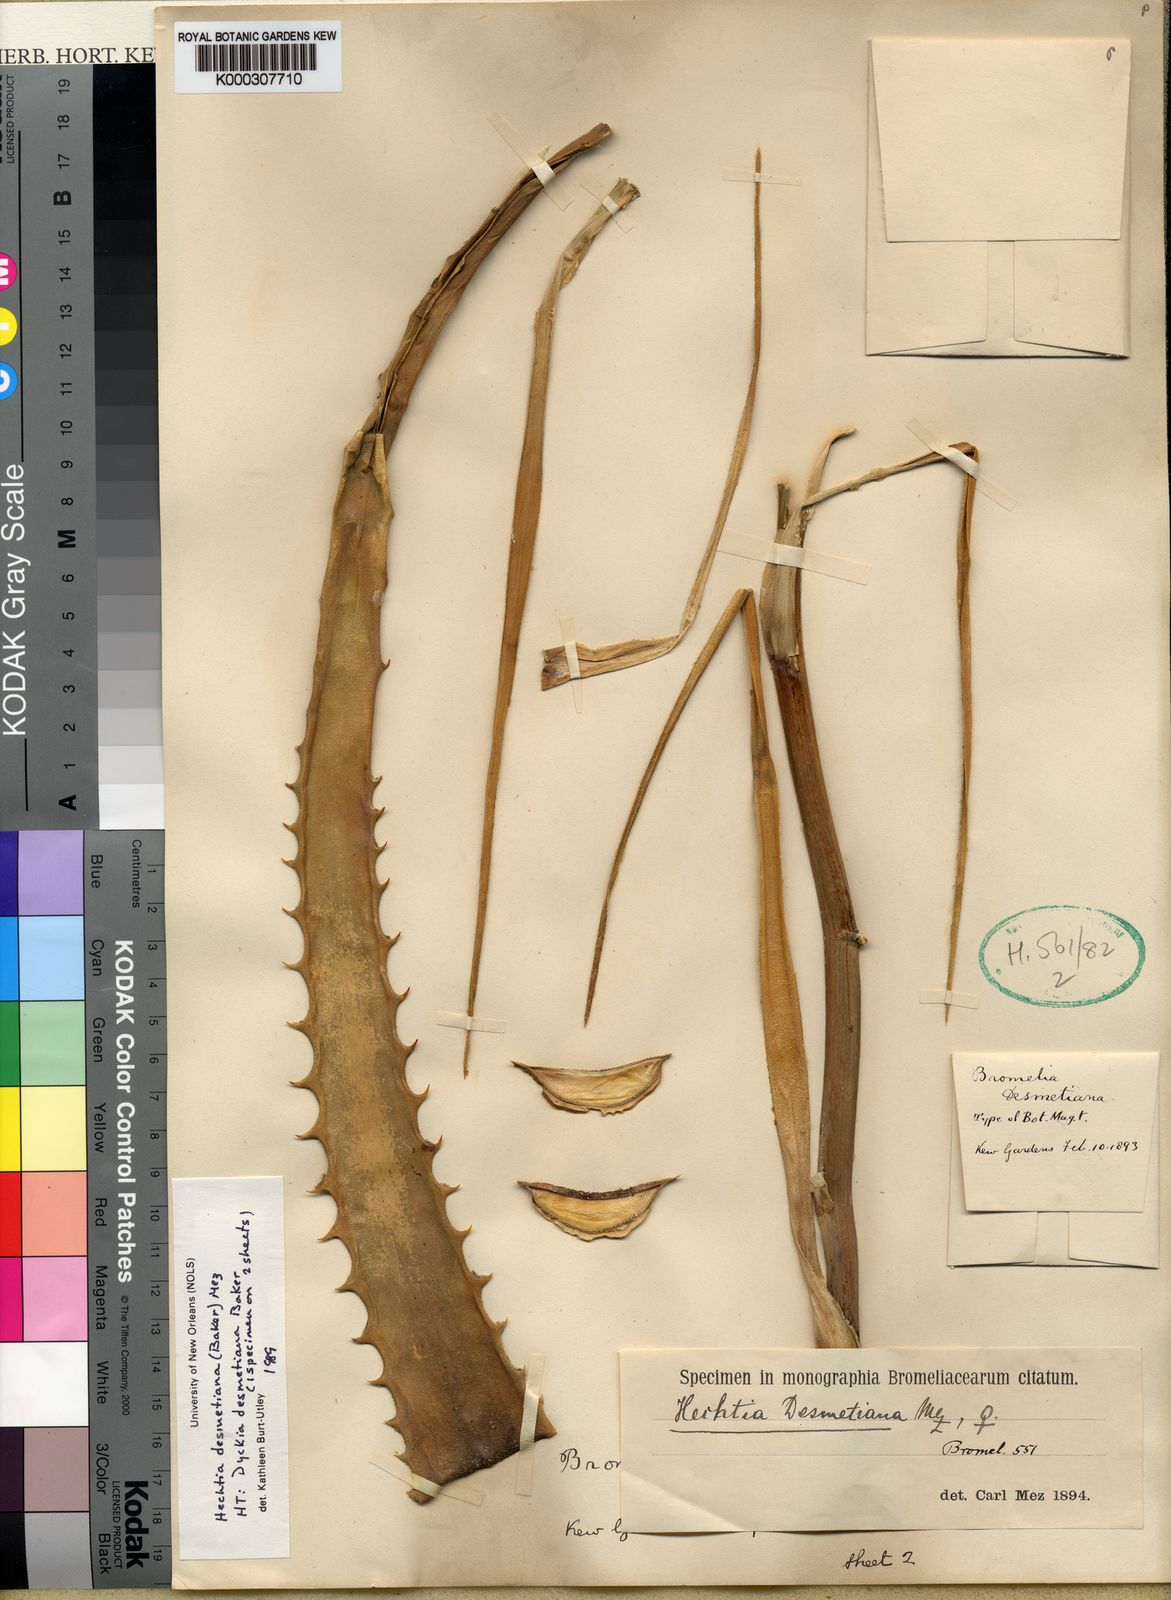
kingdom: Plantae
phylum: Tracheophyta
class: Liliopsida
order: Poales
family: Bromeliaceae
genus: Hechtia
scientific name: Hechtia rosea
